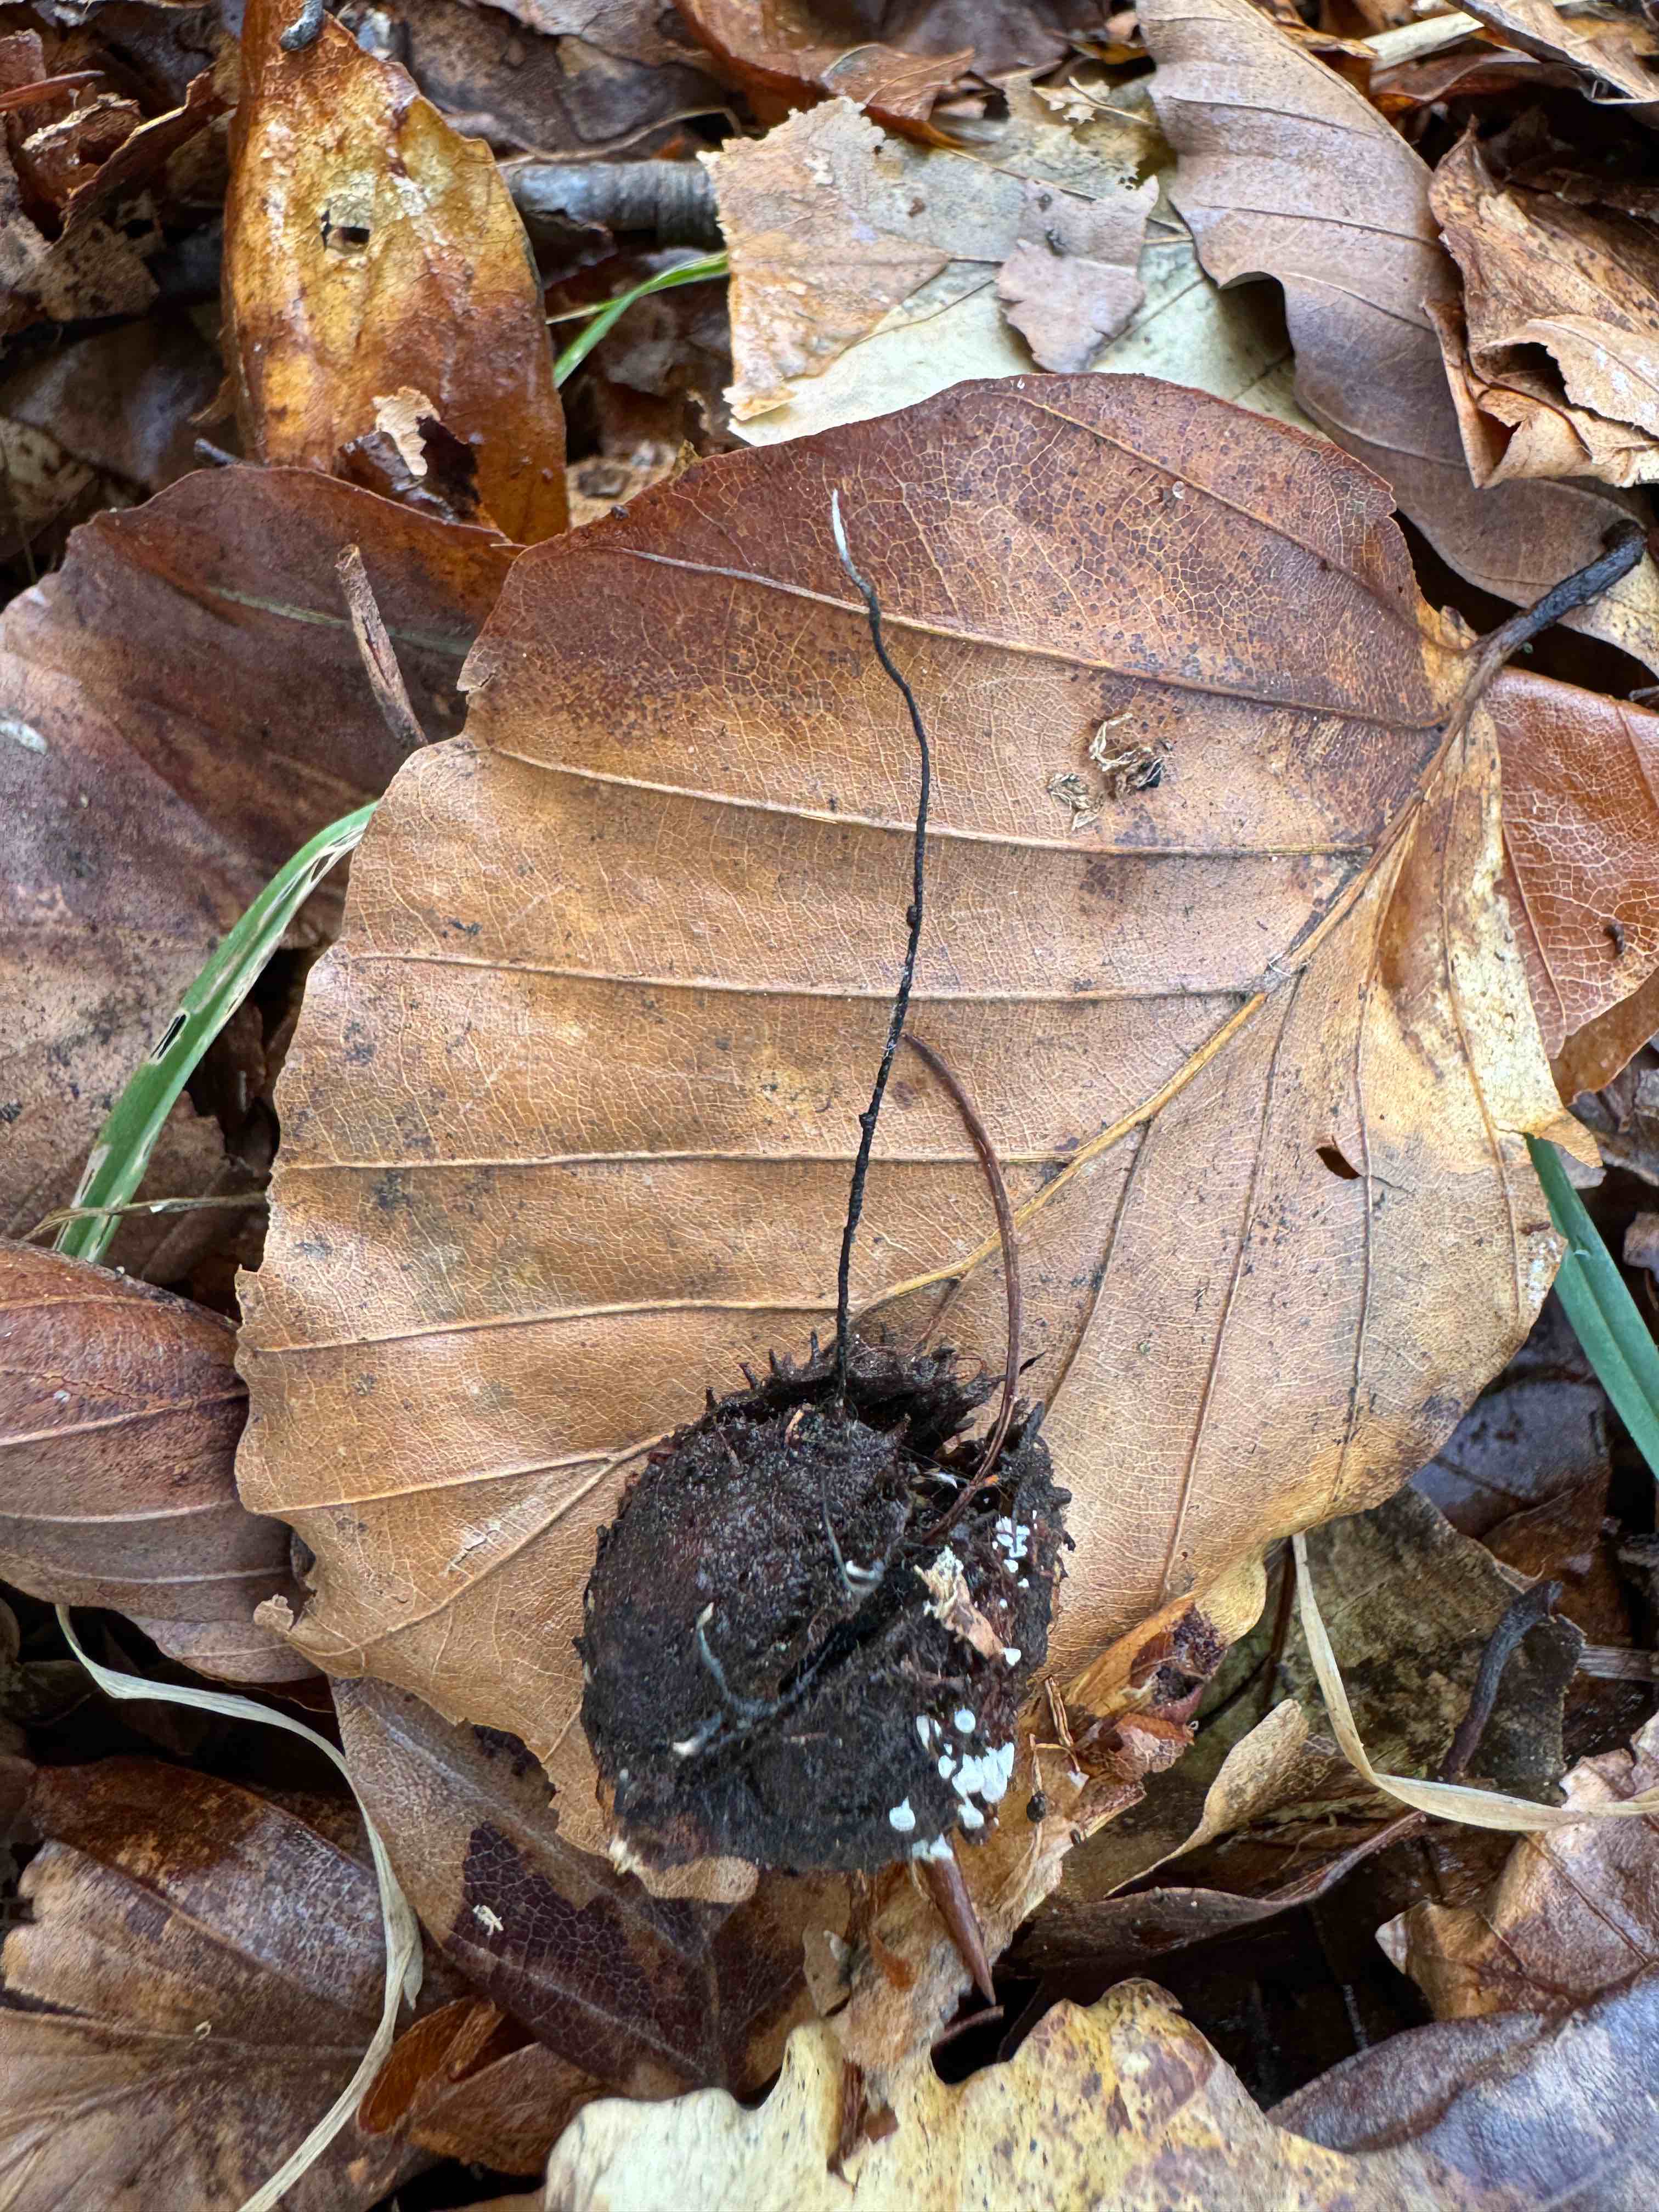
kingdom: Fungi
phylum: Ascomycota
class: Sordariomycetes
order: Xylariales
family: Xylariaceae
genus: Xylaria
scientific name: Xylaria carpophila
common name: bogskål-stødsvamp
